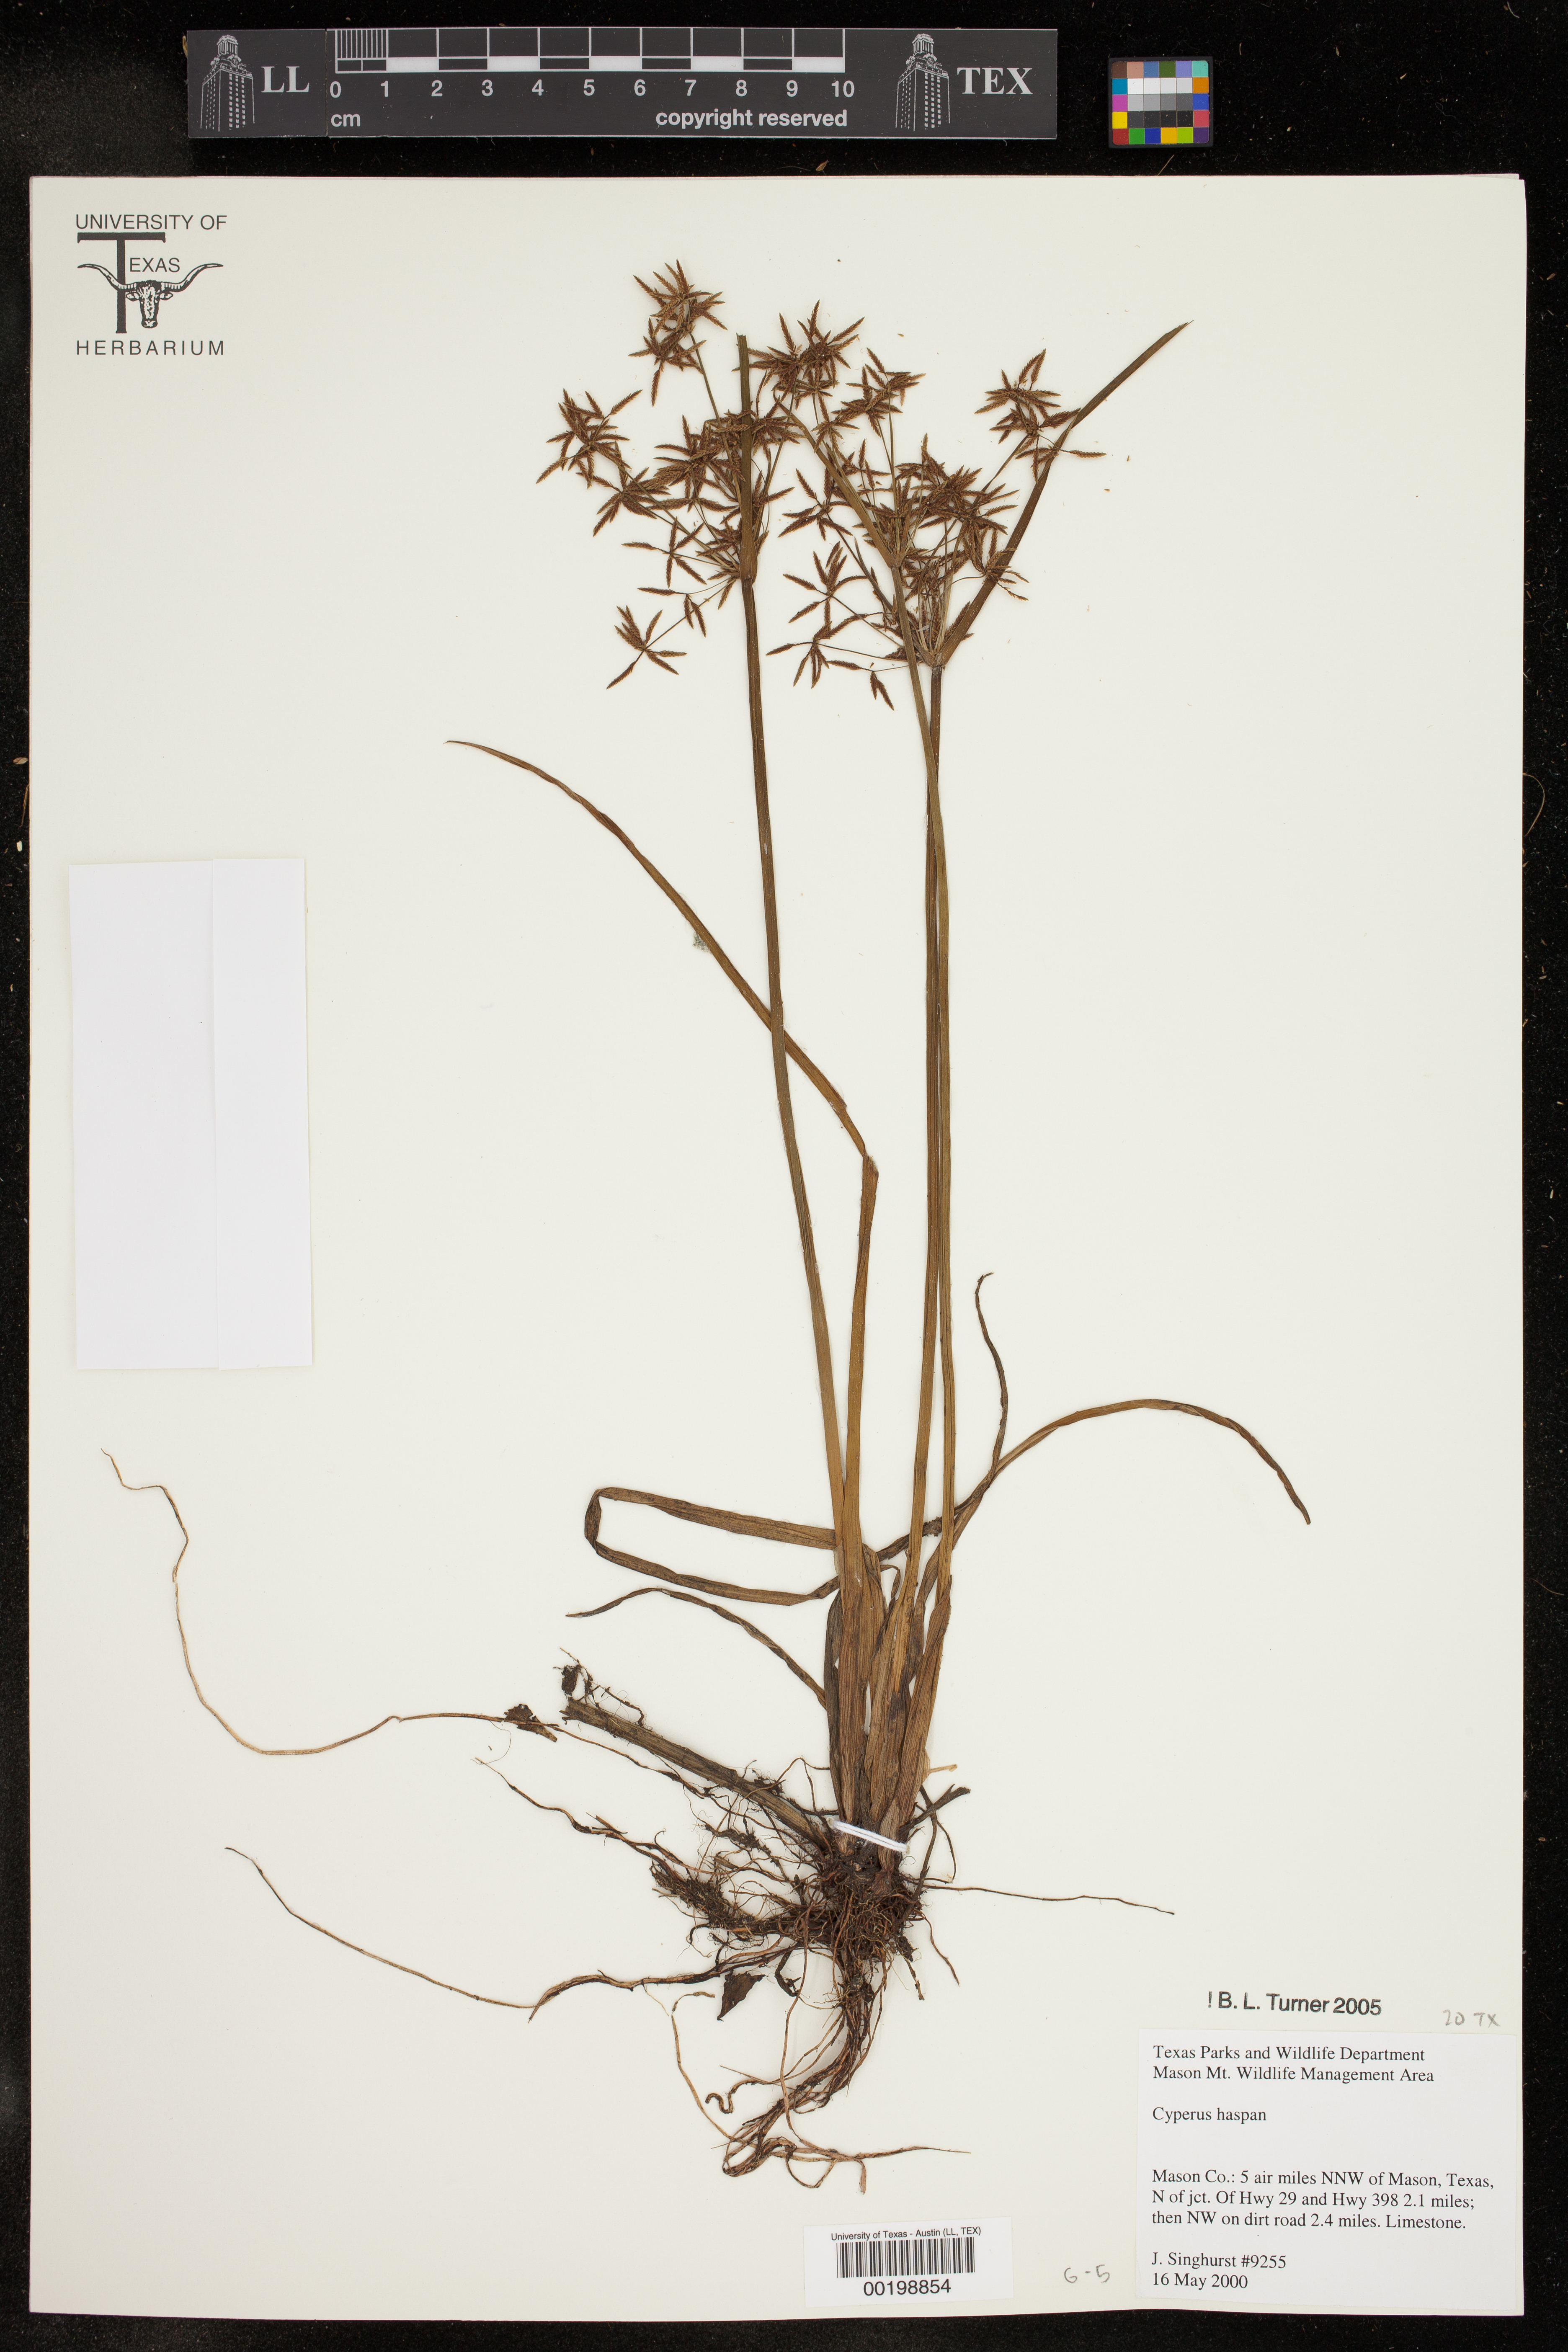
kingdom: Plantae
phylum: Tracheophyta
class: Liliopsida
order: Poales
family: Cyperaceae
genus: Cyperus
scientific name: Cyperus haspan
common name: Haspan flatsedge
